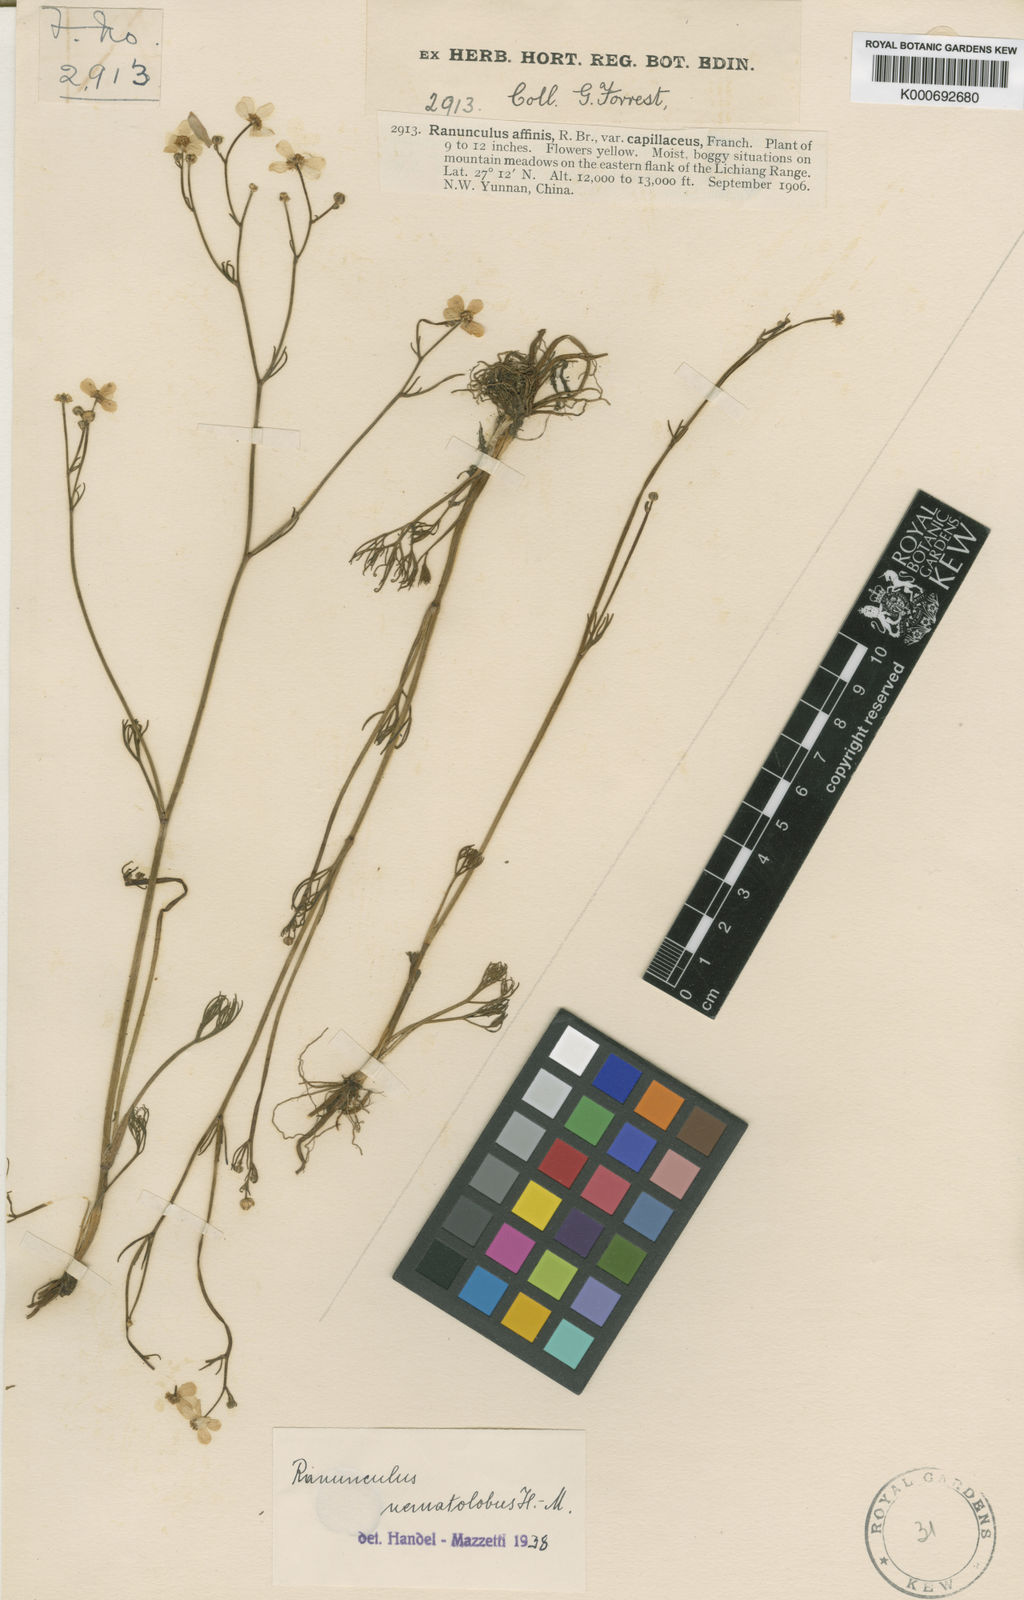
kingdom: Plantae
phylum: Tracheophyta
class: Magnoliopsida
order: Ranunculales
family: Ranunculaceae
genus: Ranunculus
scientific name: Ranunculus nematolobus
